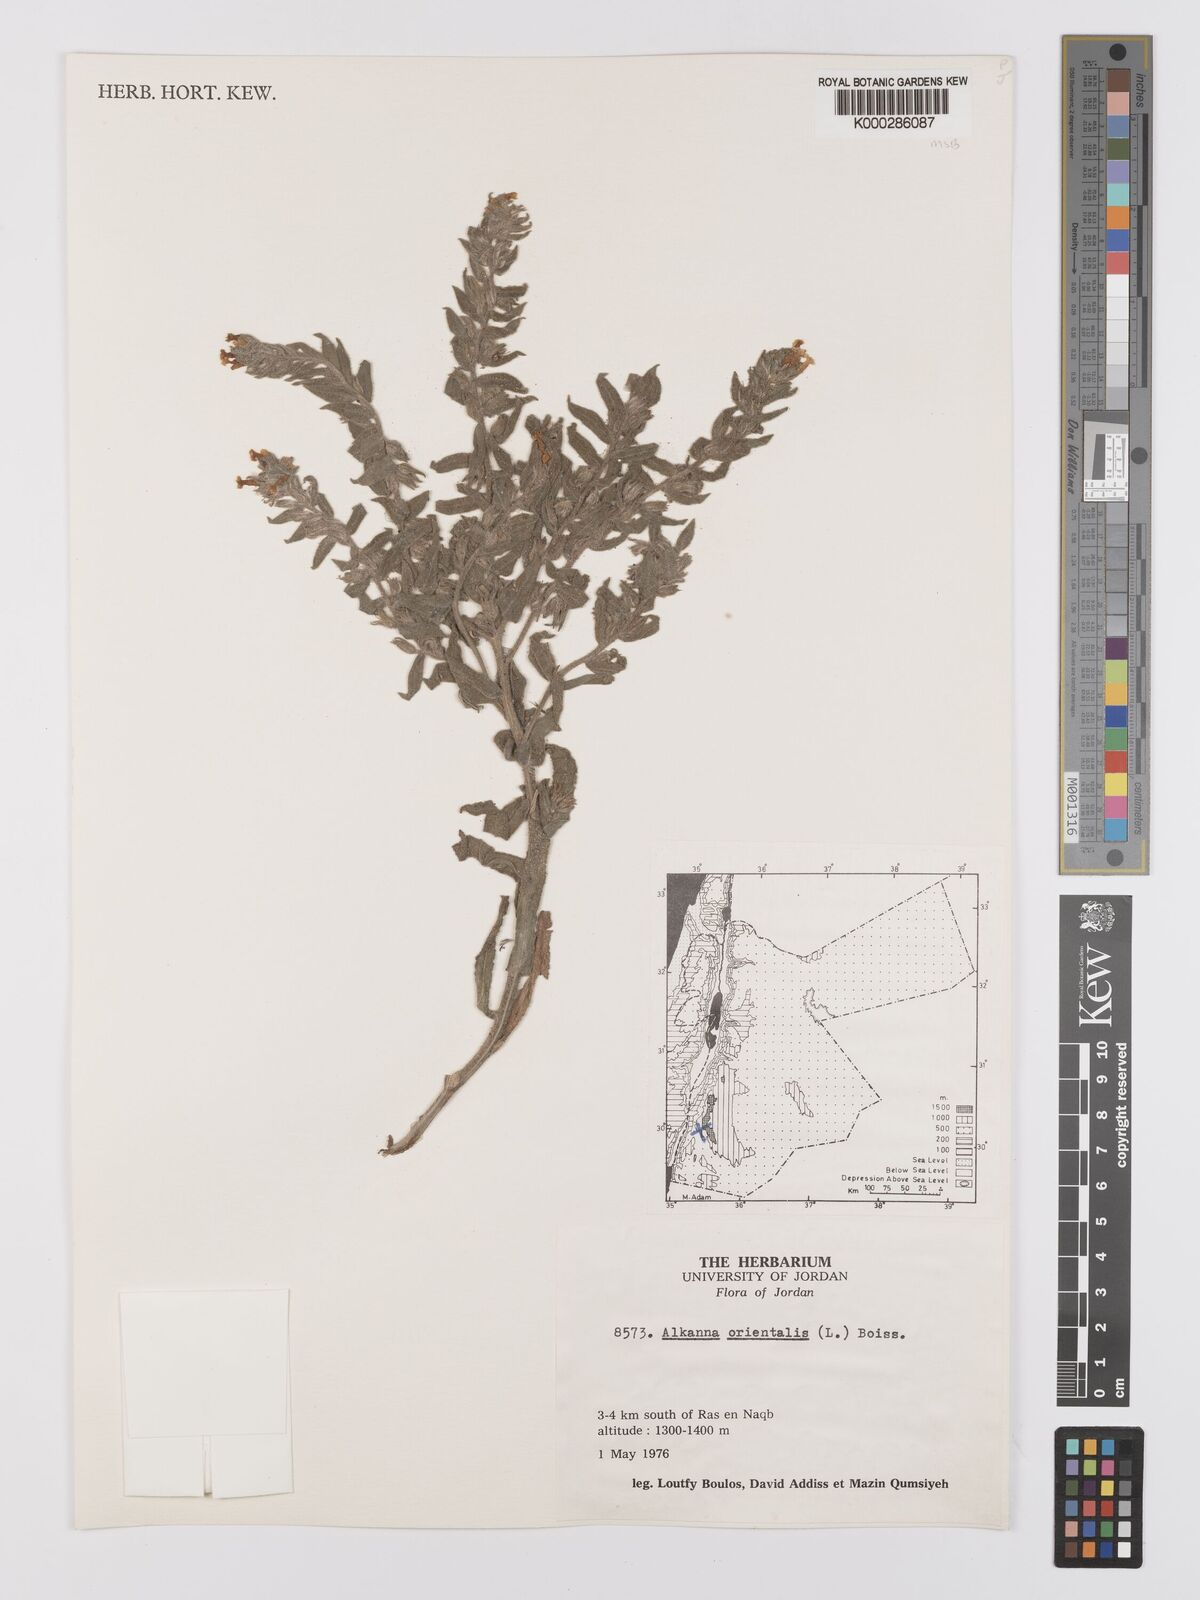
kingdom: Plantae
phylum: Tracheophyta
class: Magnoliopsida
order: Boraginales
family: Boraginaceae
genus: Alkanna
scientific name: Alkanna orientalis
